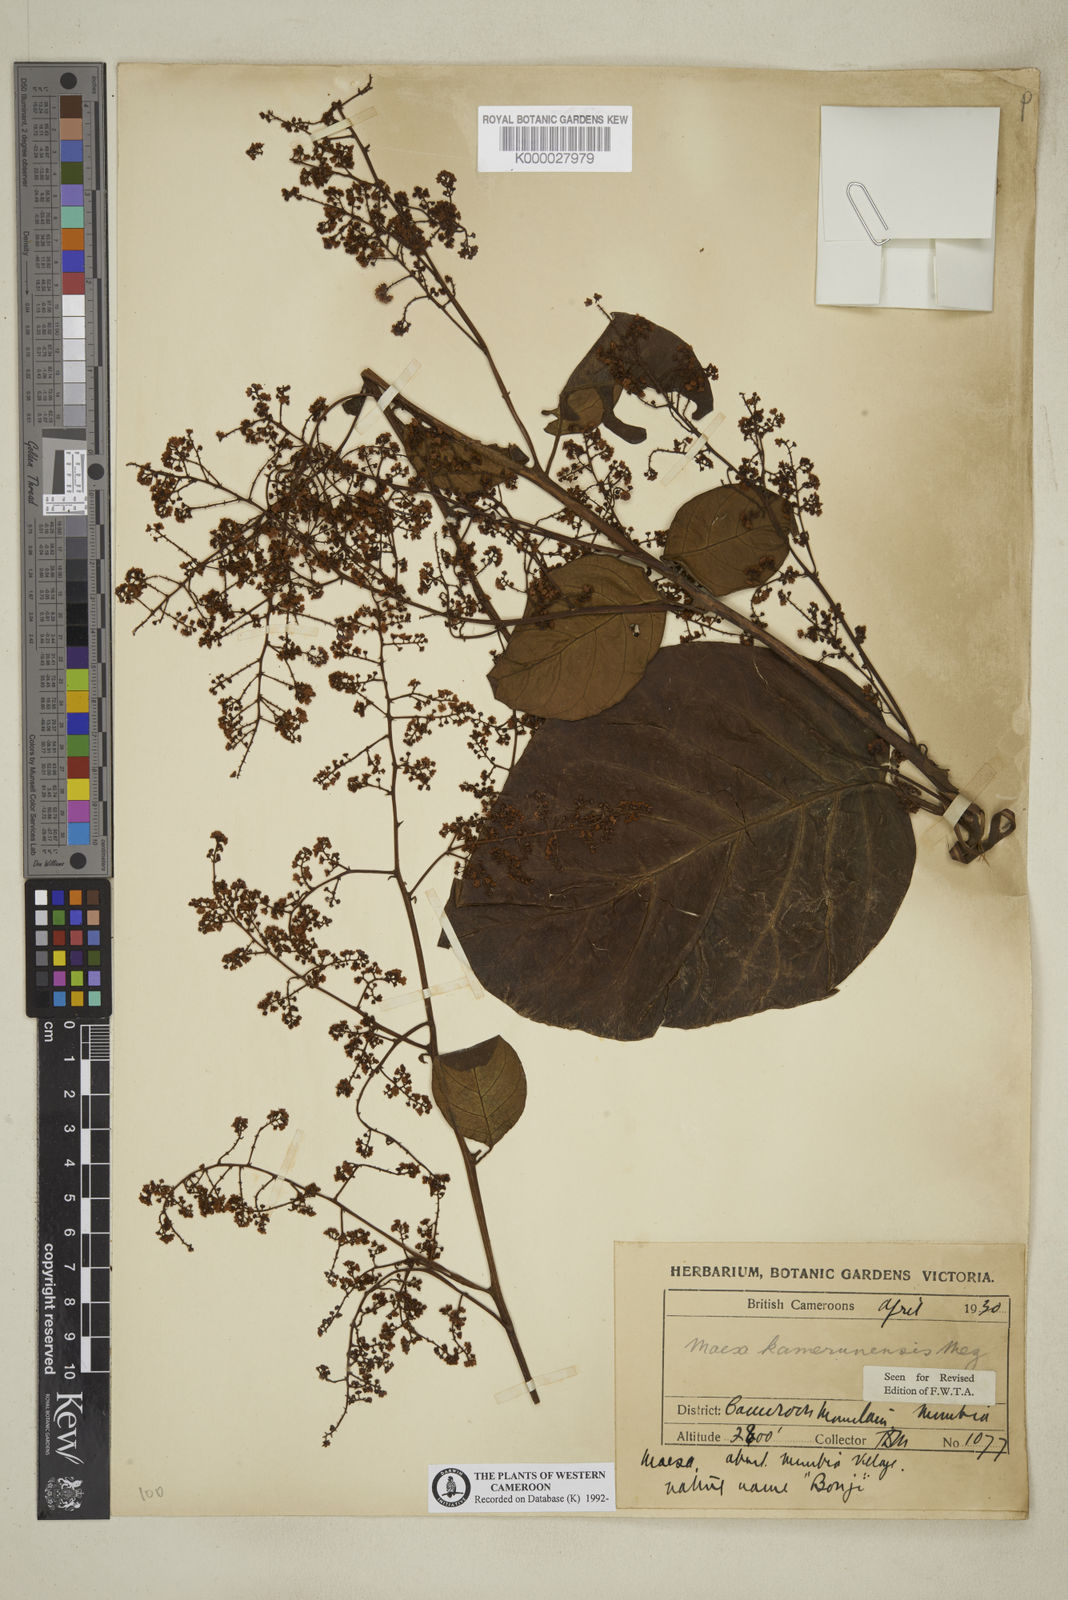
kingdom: Plantae
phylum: Tracheophyta
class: Magnoliopsida
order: Ericales
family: Primulaceae
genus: Maesa
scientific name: Maesa kamerunensis
